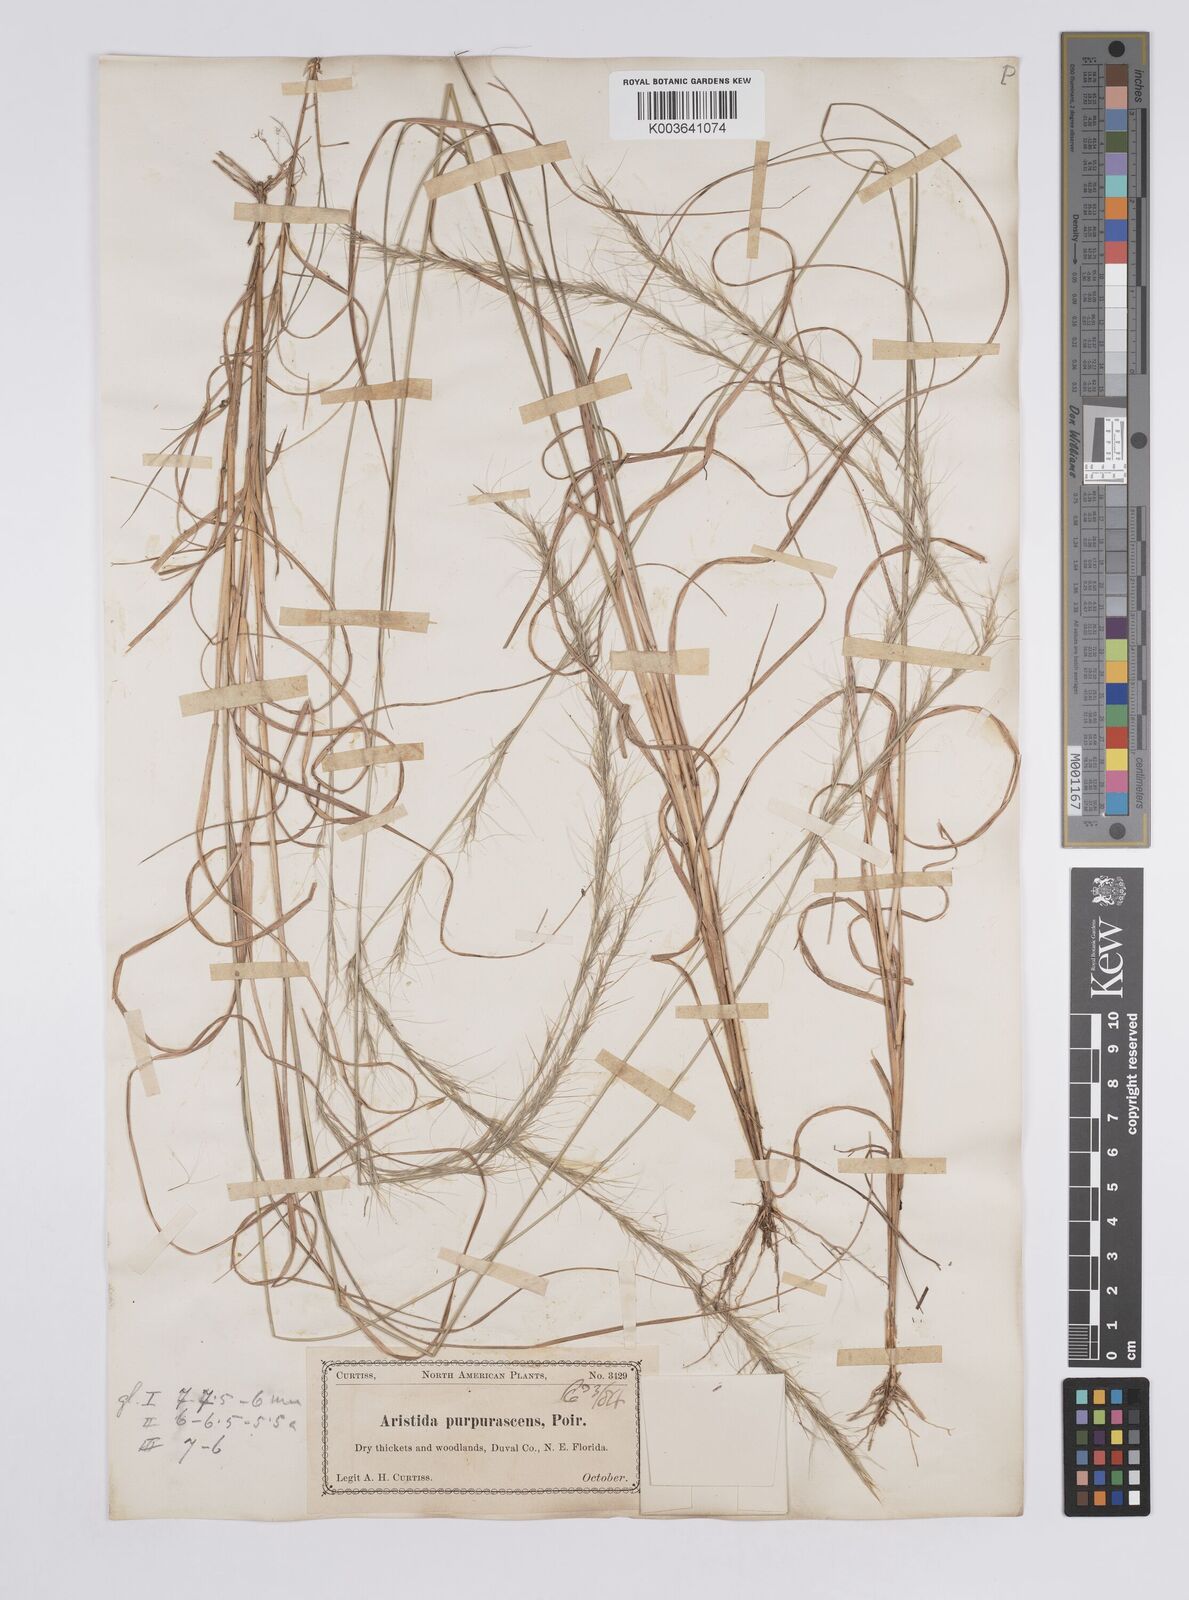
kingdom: Plantae
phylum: Tracheophyta
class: Liliopsida
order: Poales
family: Poaceae
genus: Aristida
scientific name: Aristida purpurascens
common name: Arrow-feather
